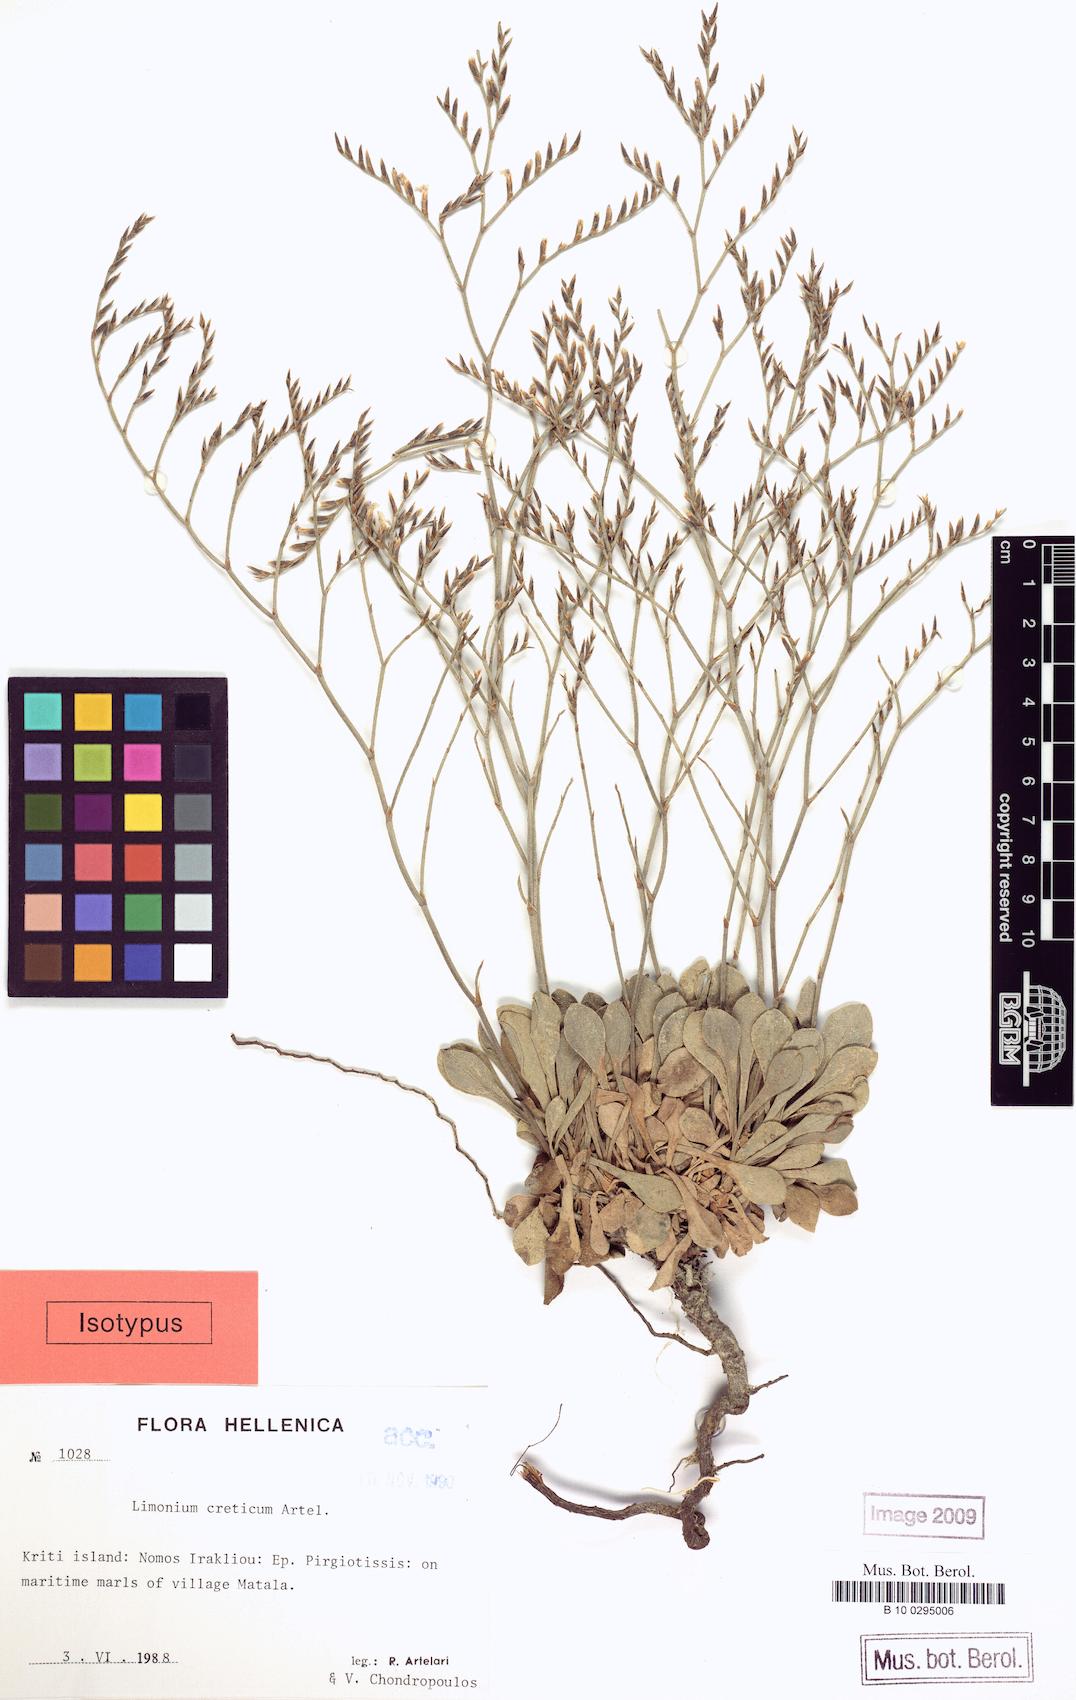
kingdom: Plantae
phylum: Tracheophyta
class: Magnoliopsida
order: Caryophyllales
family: Plumbaginaceae
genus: Limonium
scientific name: Limonium creticum
